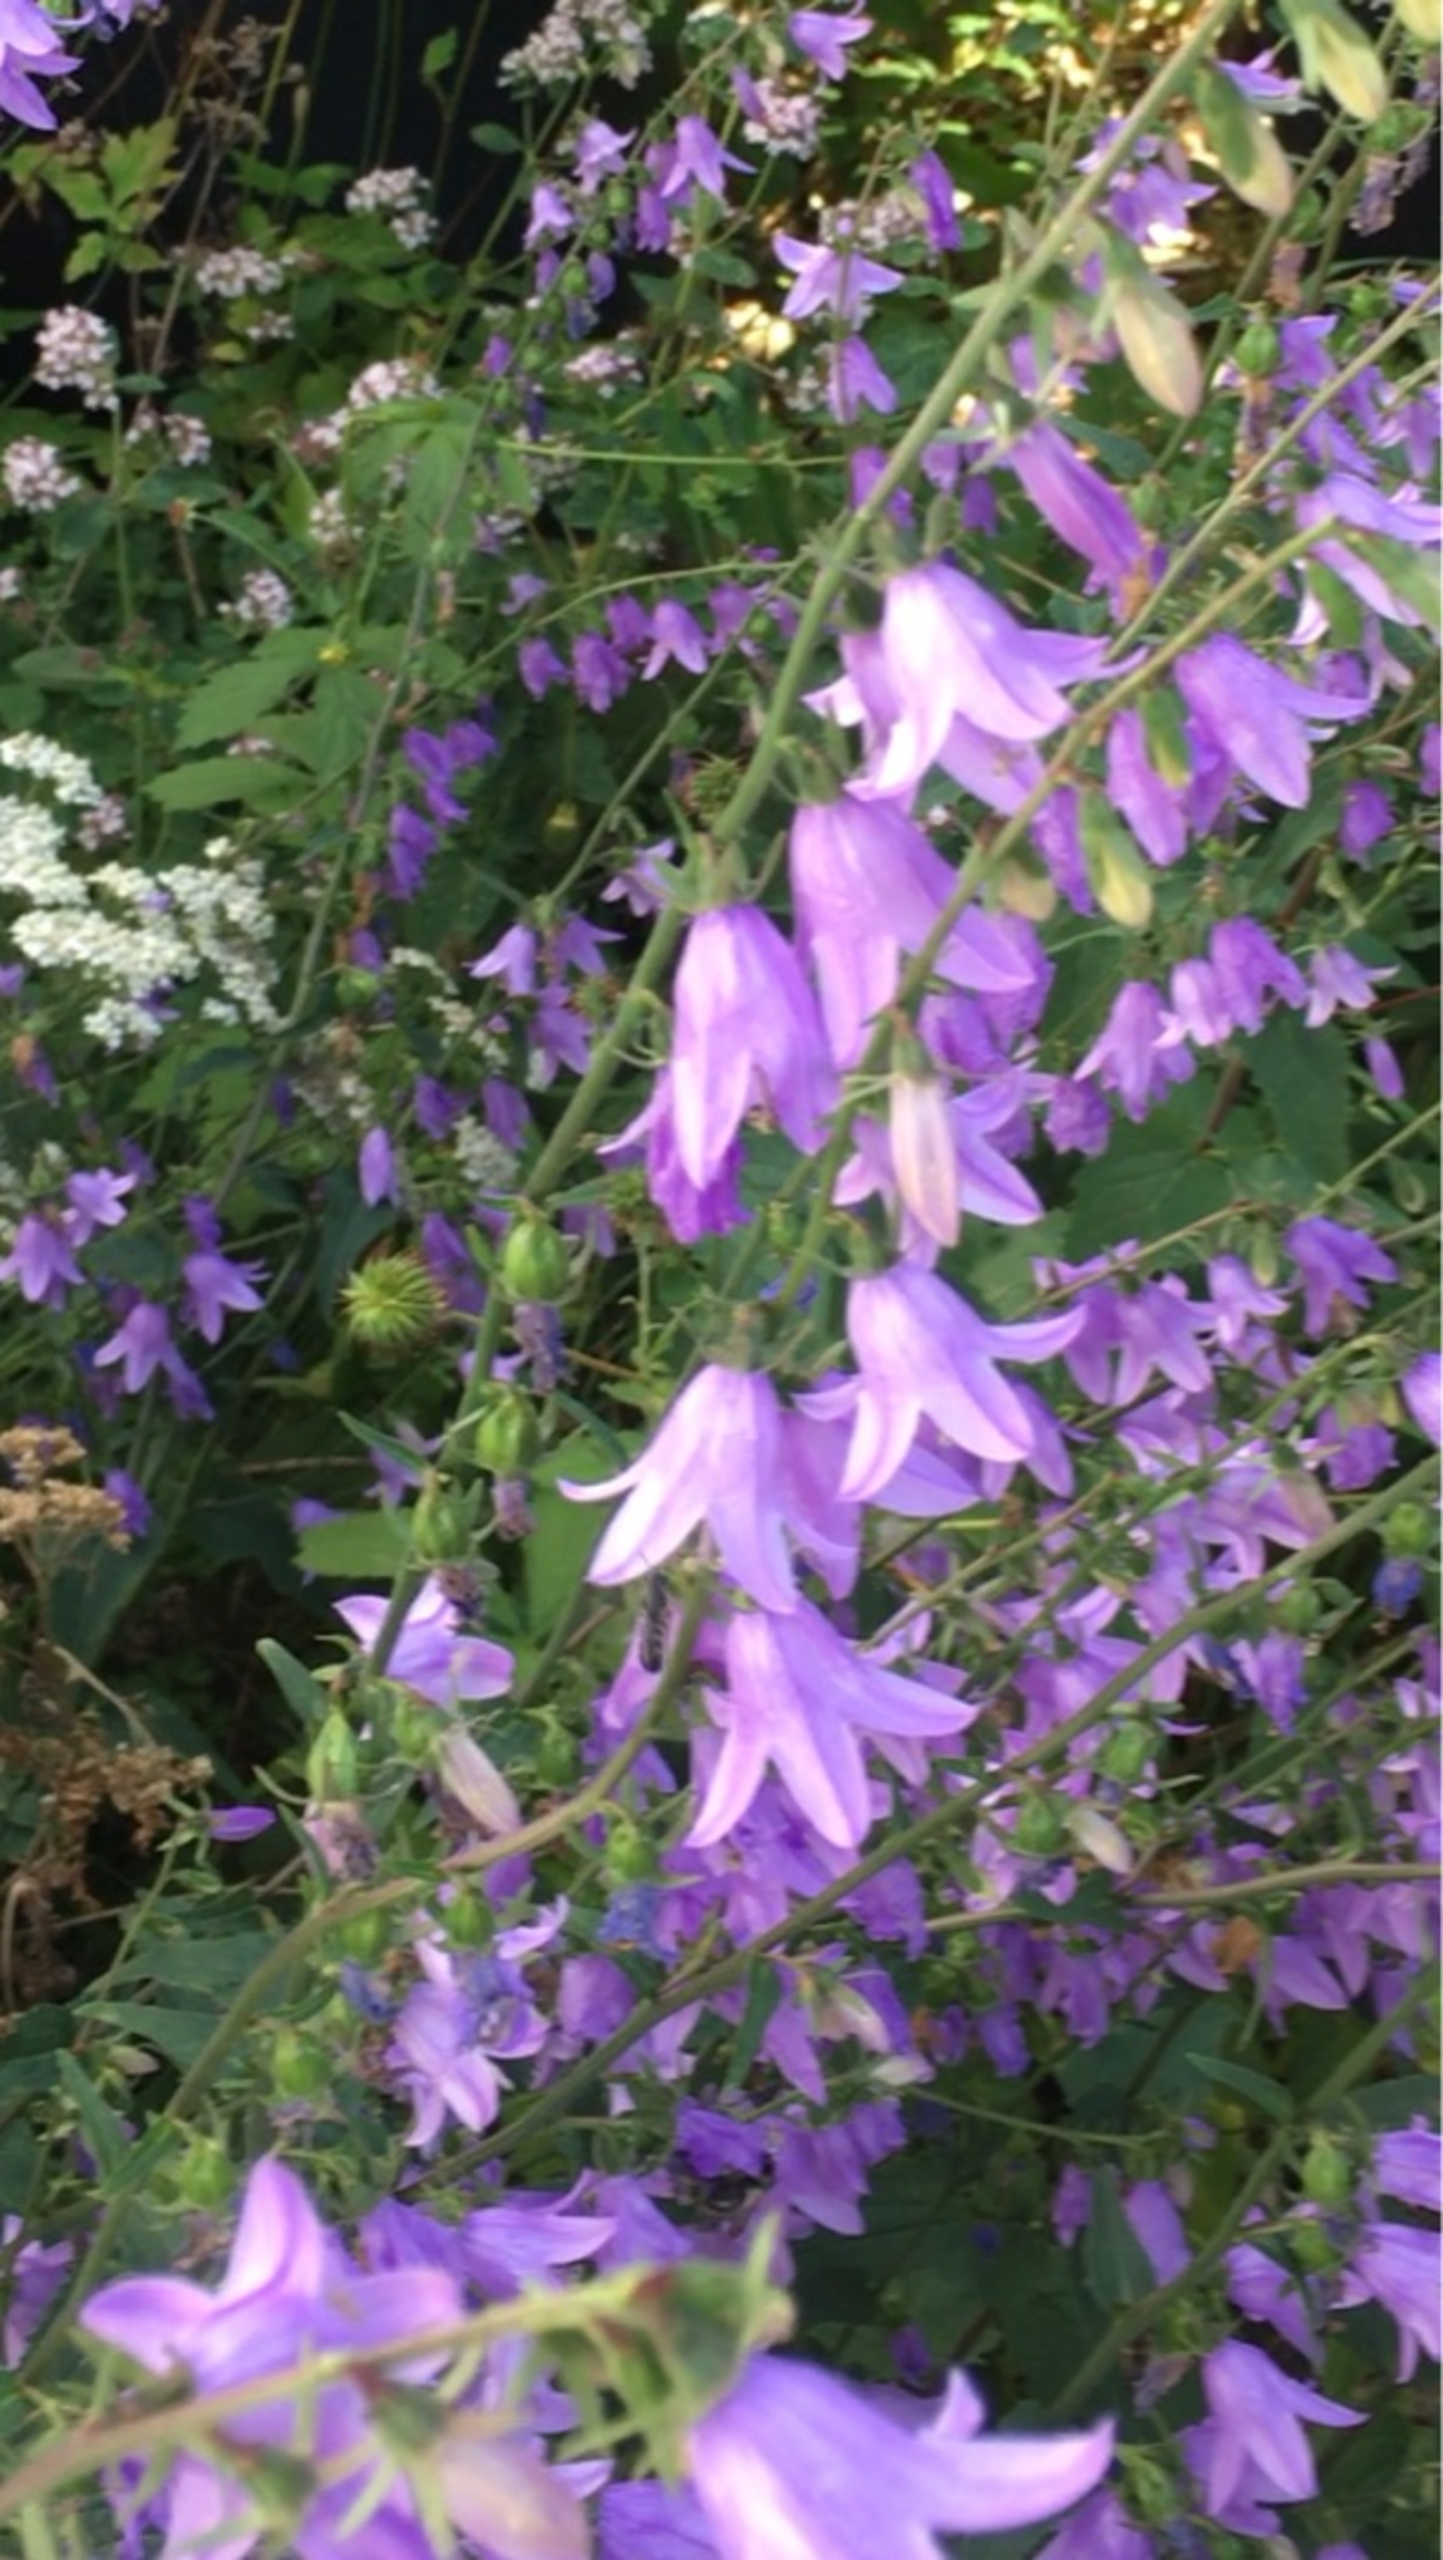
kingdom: Animalia
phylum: Arthropoda
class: Insecta
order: Hymenoptera
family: Megachilidae
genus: Chelostoma
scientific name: Chelostoma rapunculi
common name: Stor saksebi
